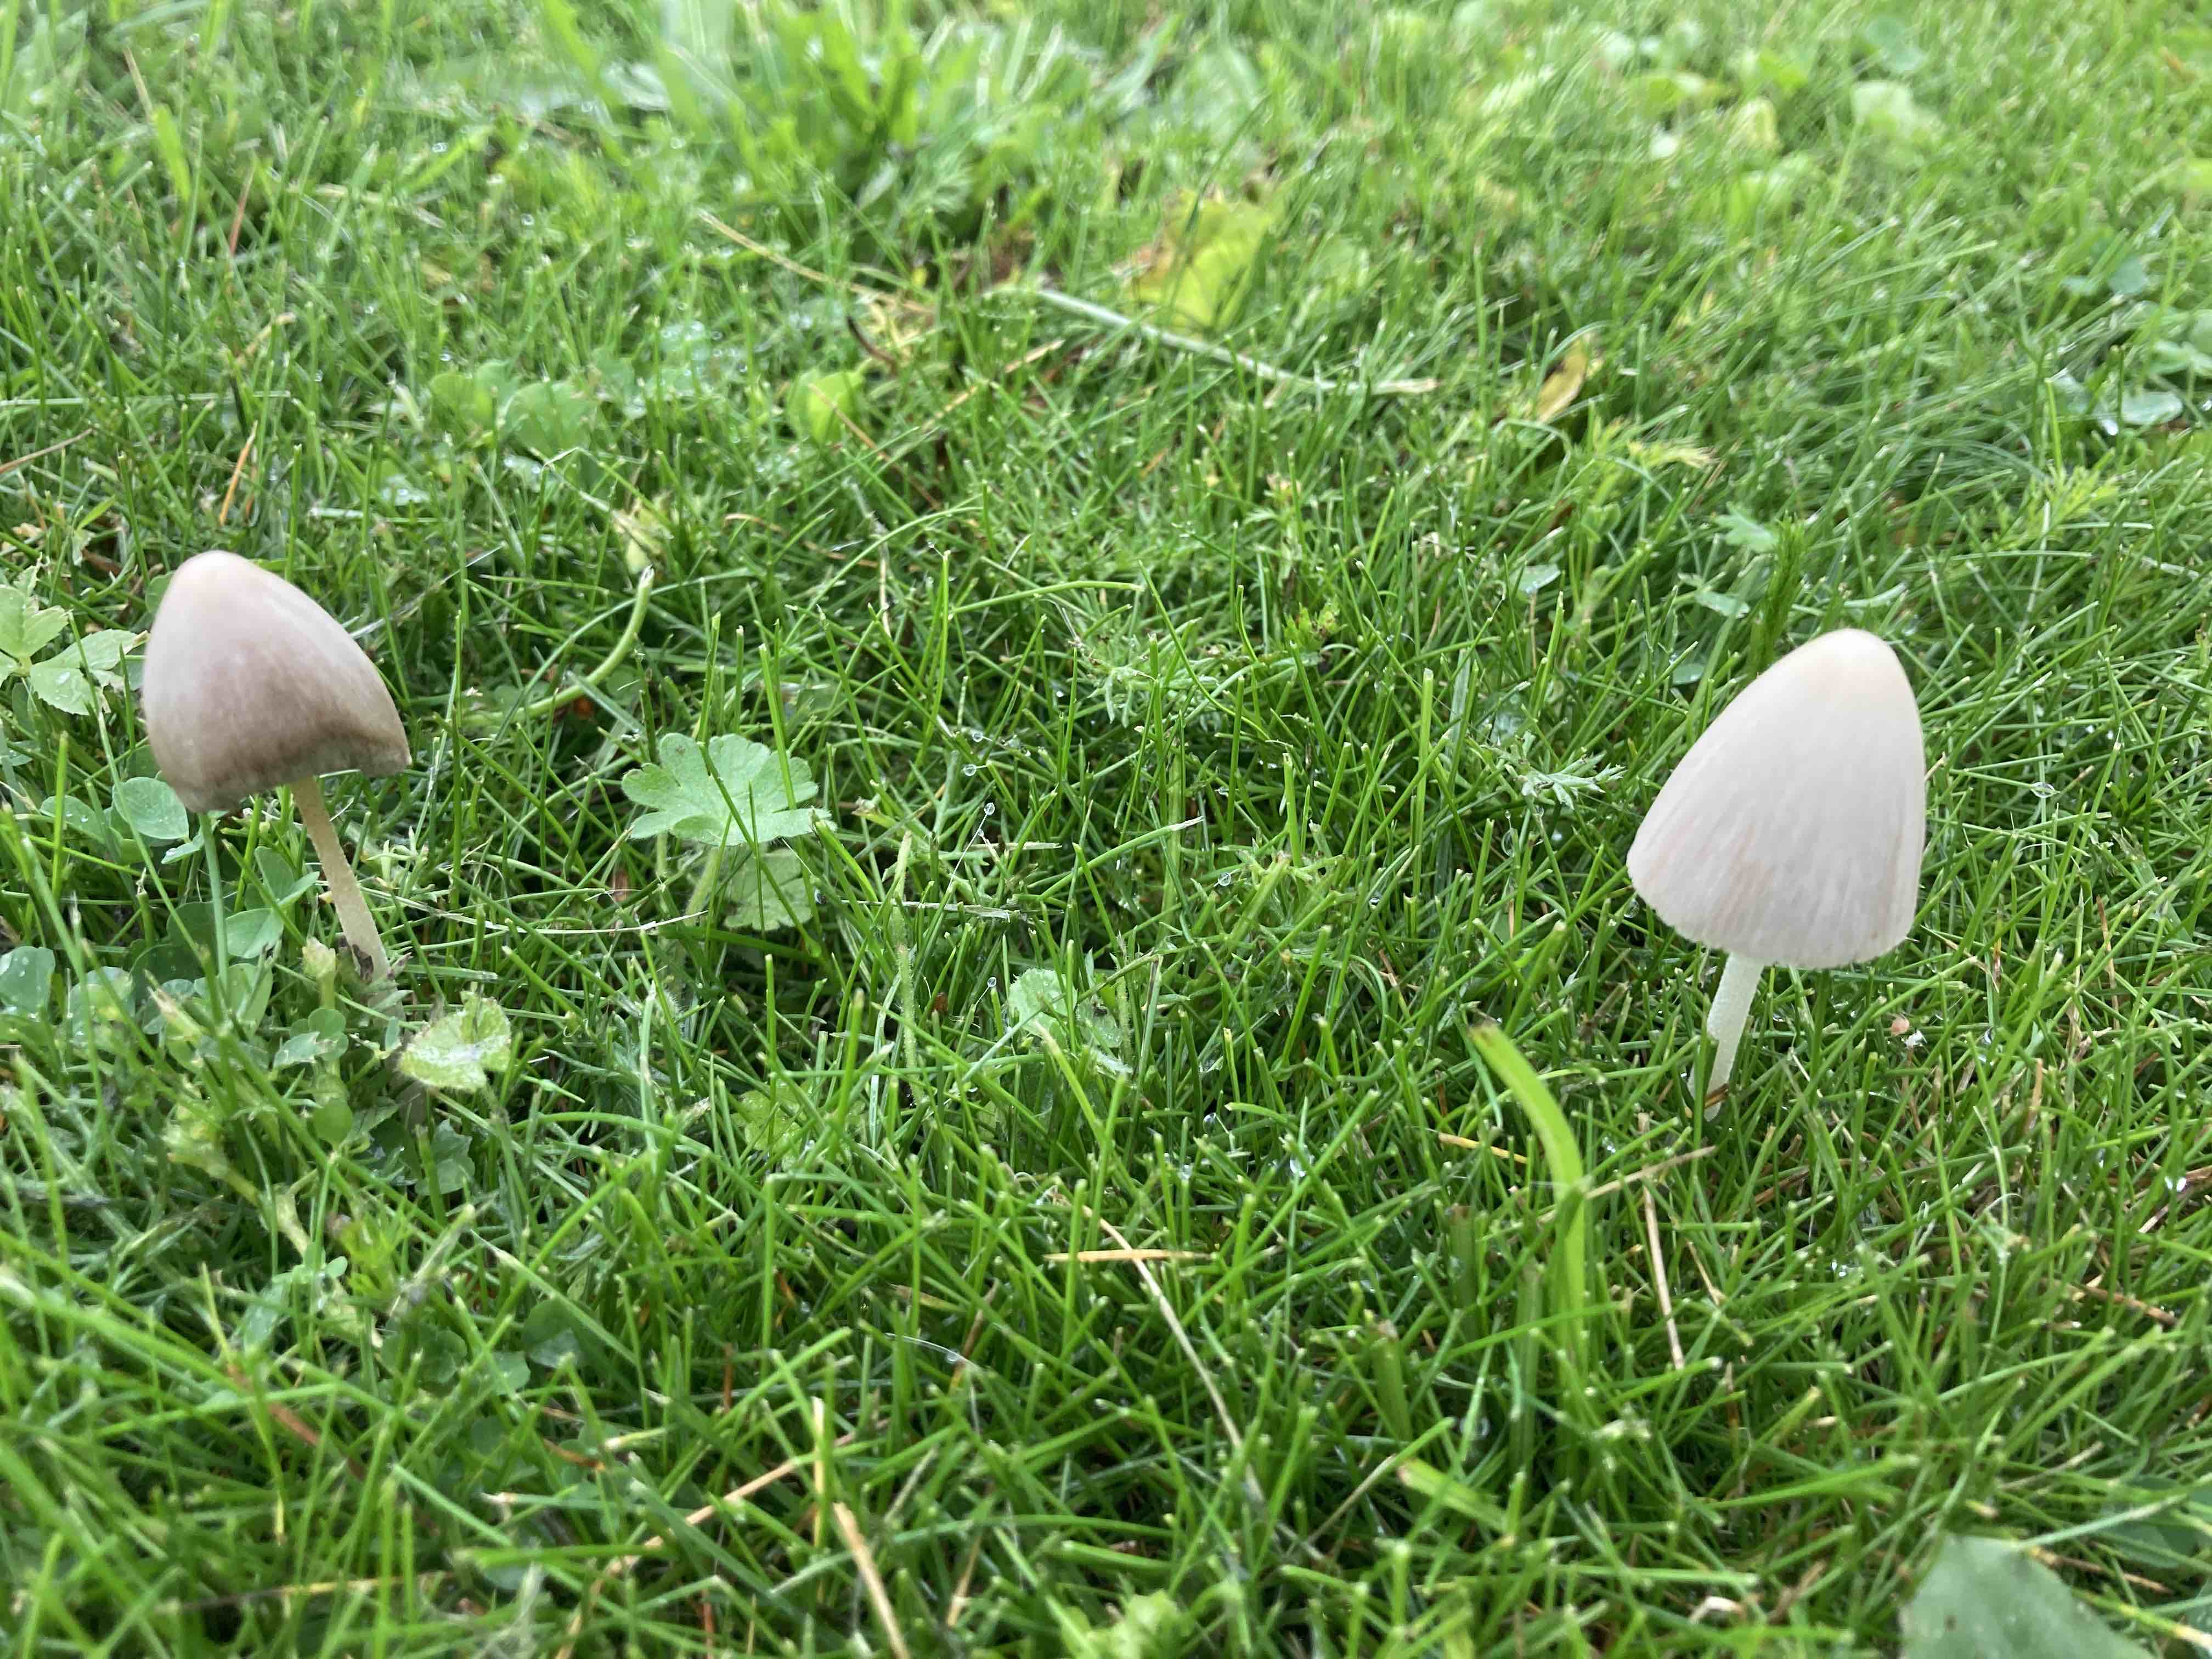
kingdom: Fungi
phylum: Basidiomycota
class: Agaricomycetes
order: Agaricales
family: Bolbitiaceae
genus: Conocybe
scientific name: Conocybe apala
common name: mælkehvid keglehat
